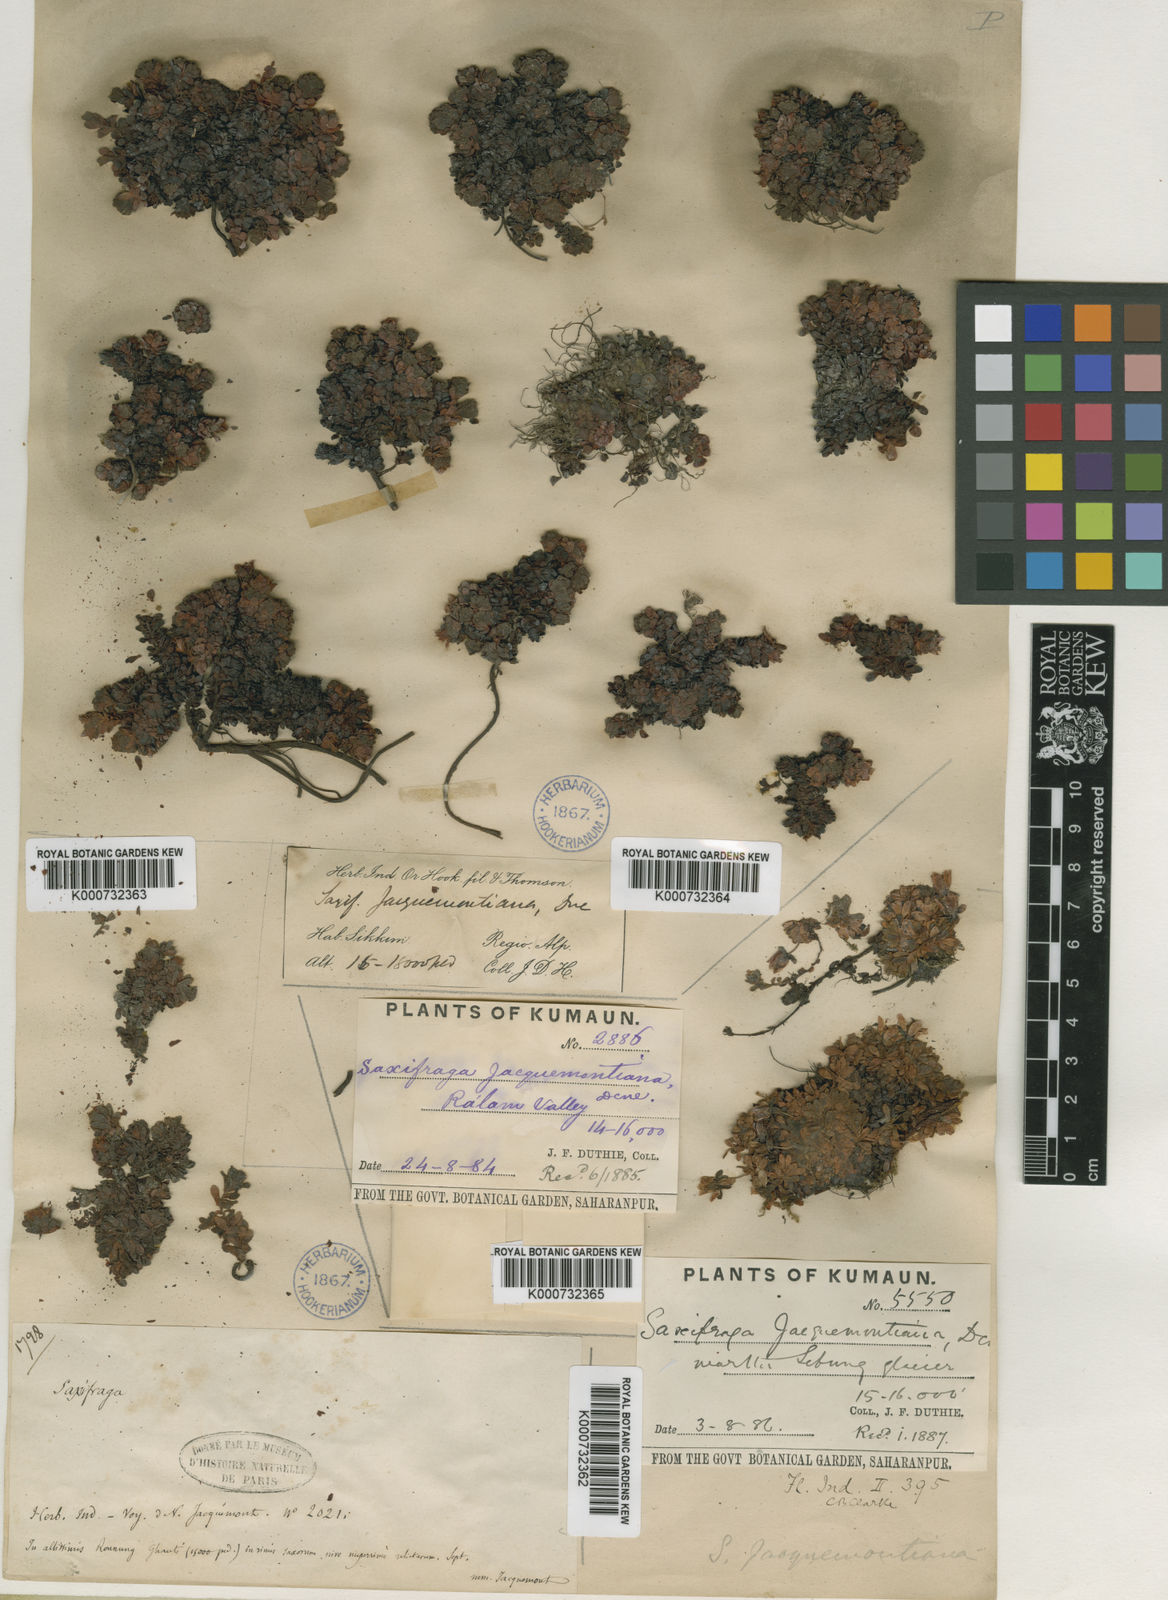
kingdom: Plantae
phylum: Tracheophyta
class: Magnoliopsida
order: Saxifragales
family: Saxifragaceae
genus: Saxifraga
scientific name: Saxifraga jacquemontiana
